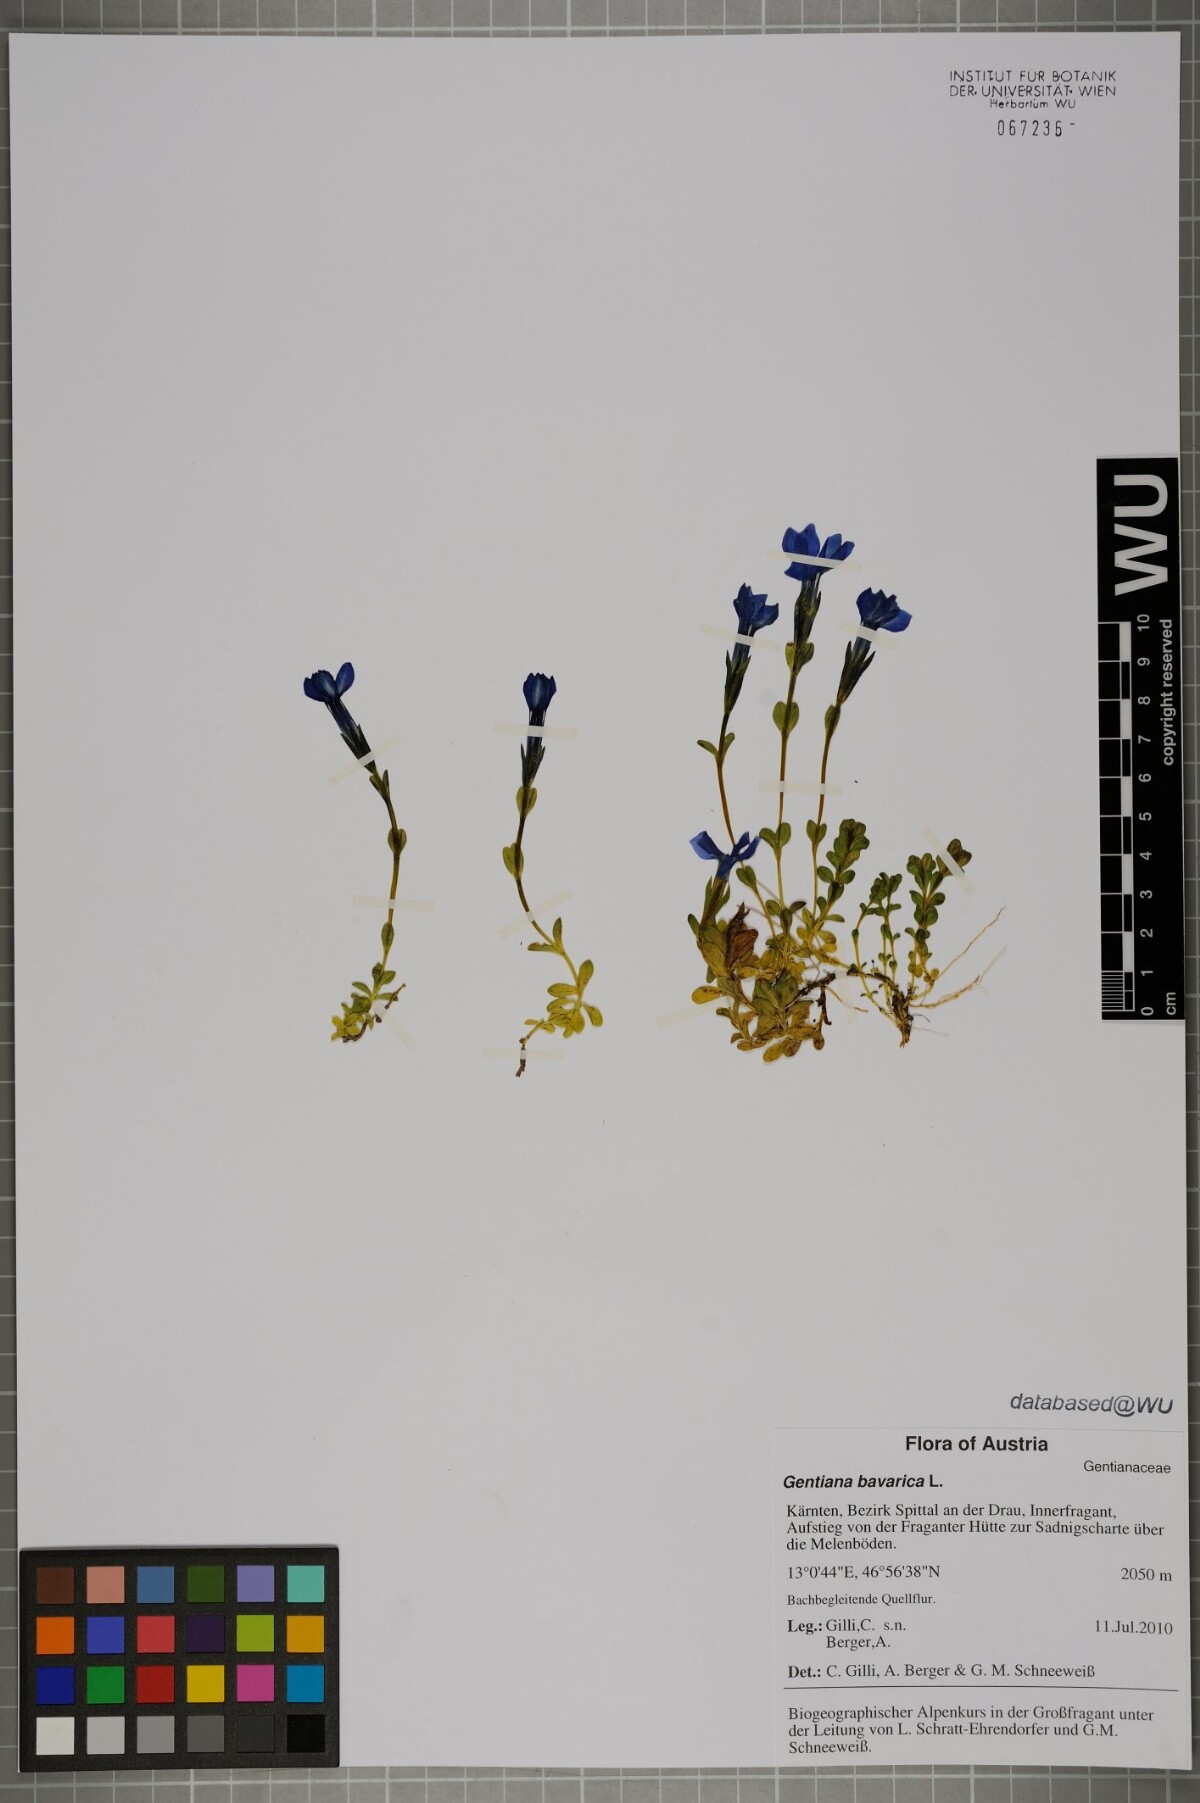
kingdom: Plantae
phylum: Tracheophyta
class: Magnoliopsida
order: Gentianales
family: Gentianaceae
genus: Gentiana
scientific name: Gentiana bavarica
